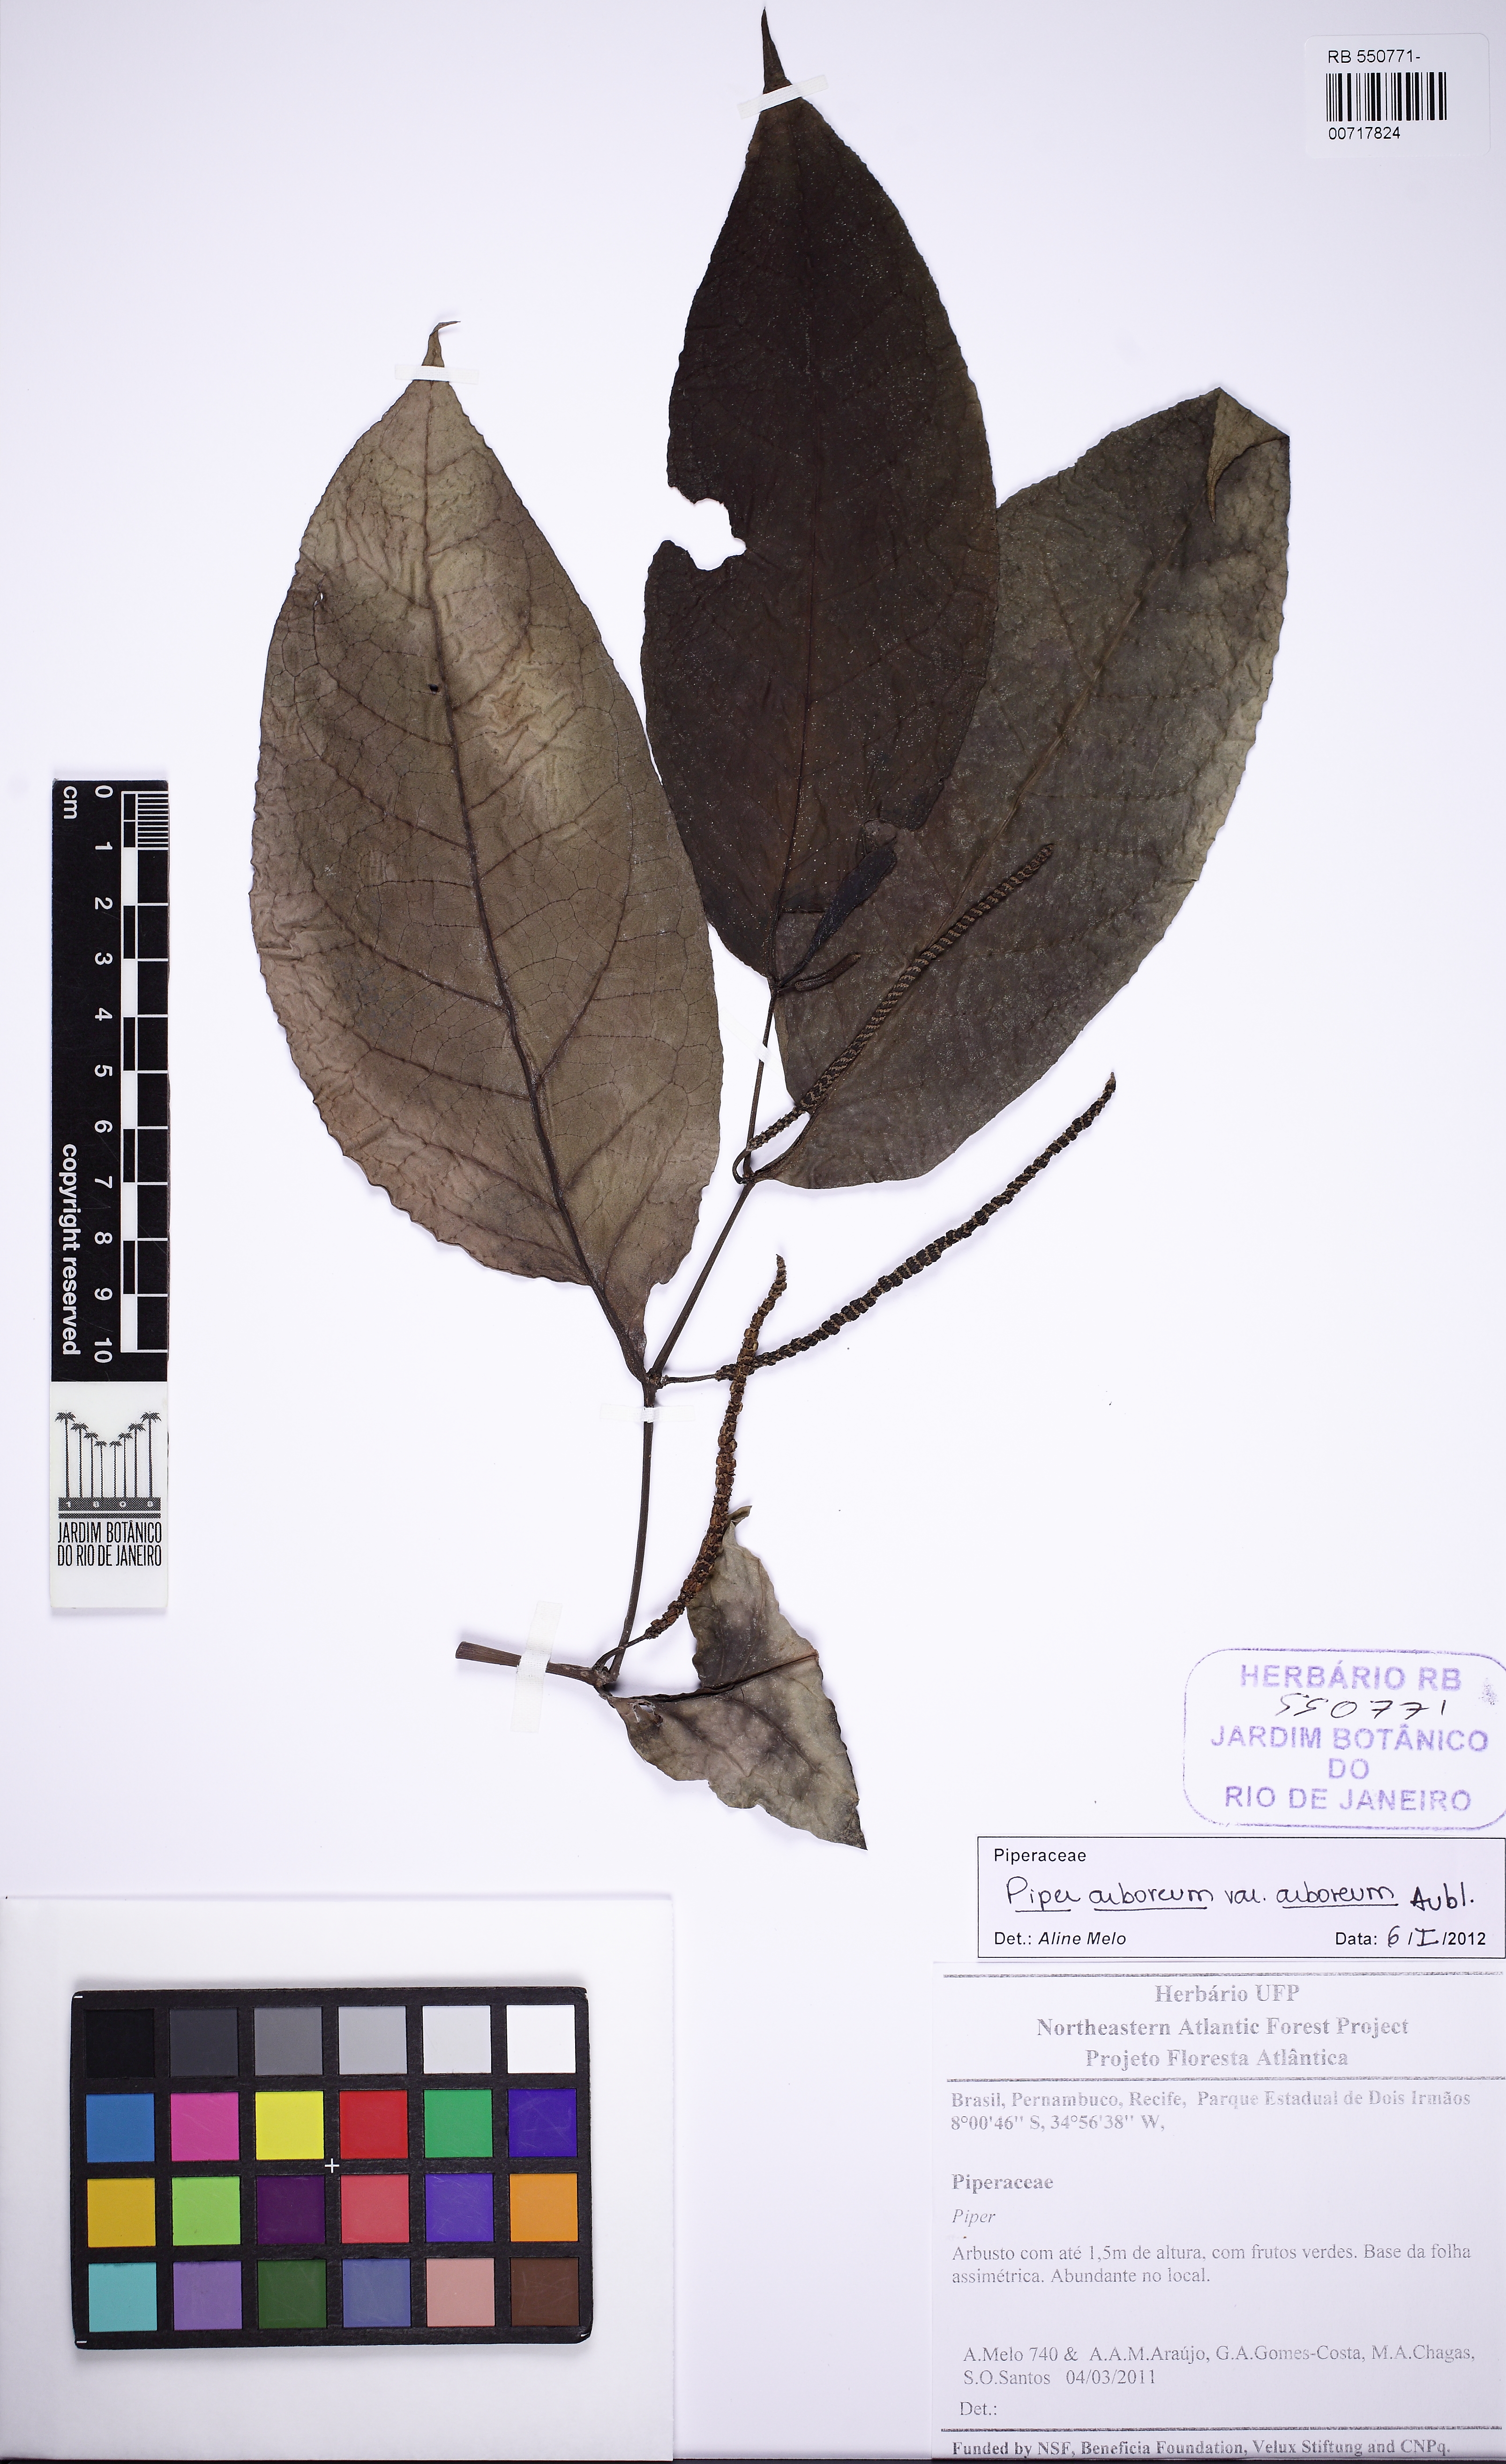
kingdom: Plantae
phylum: Tracheophyta
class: Magnoliopsida
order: Piperales
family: Piperaceae
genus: Piper
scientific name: Piper arboreum
